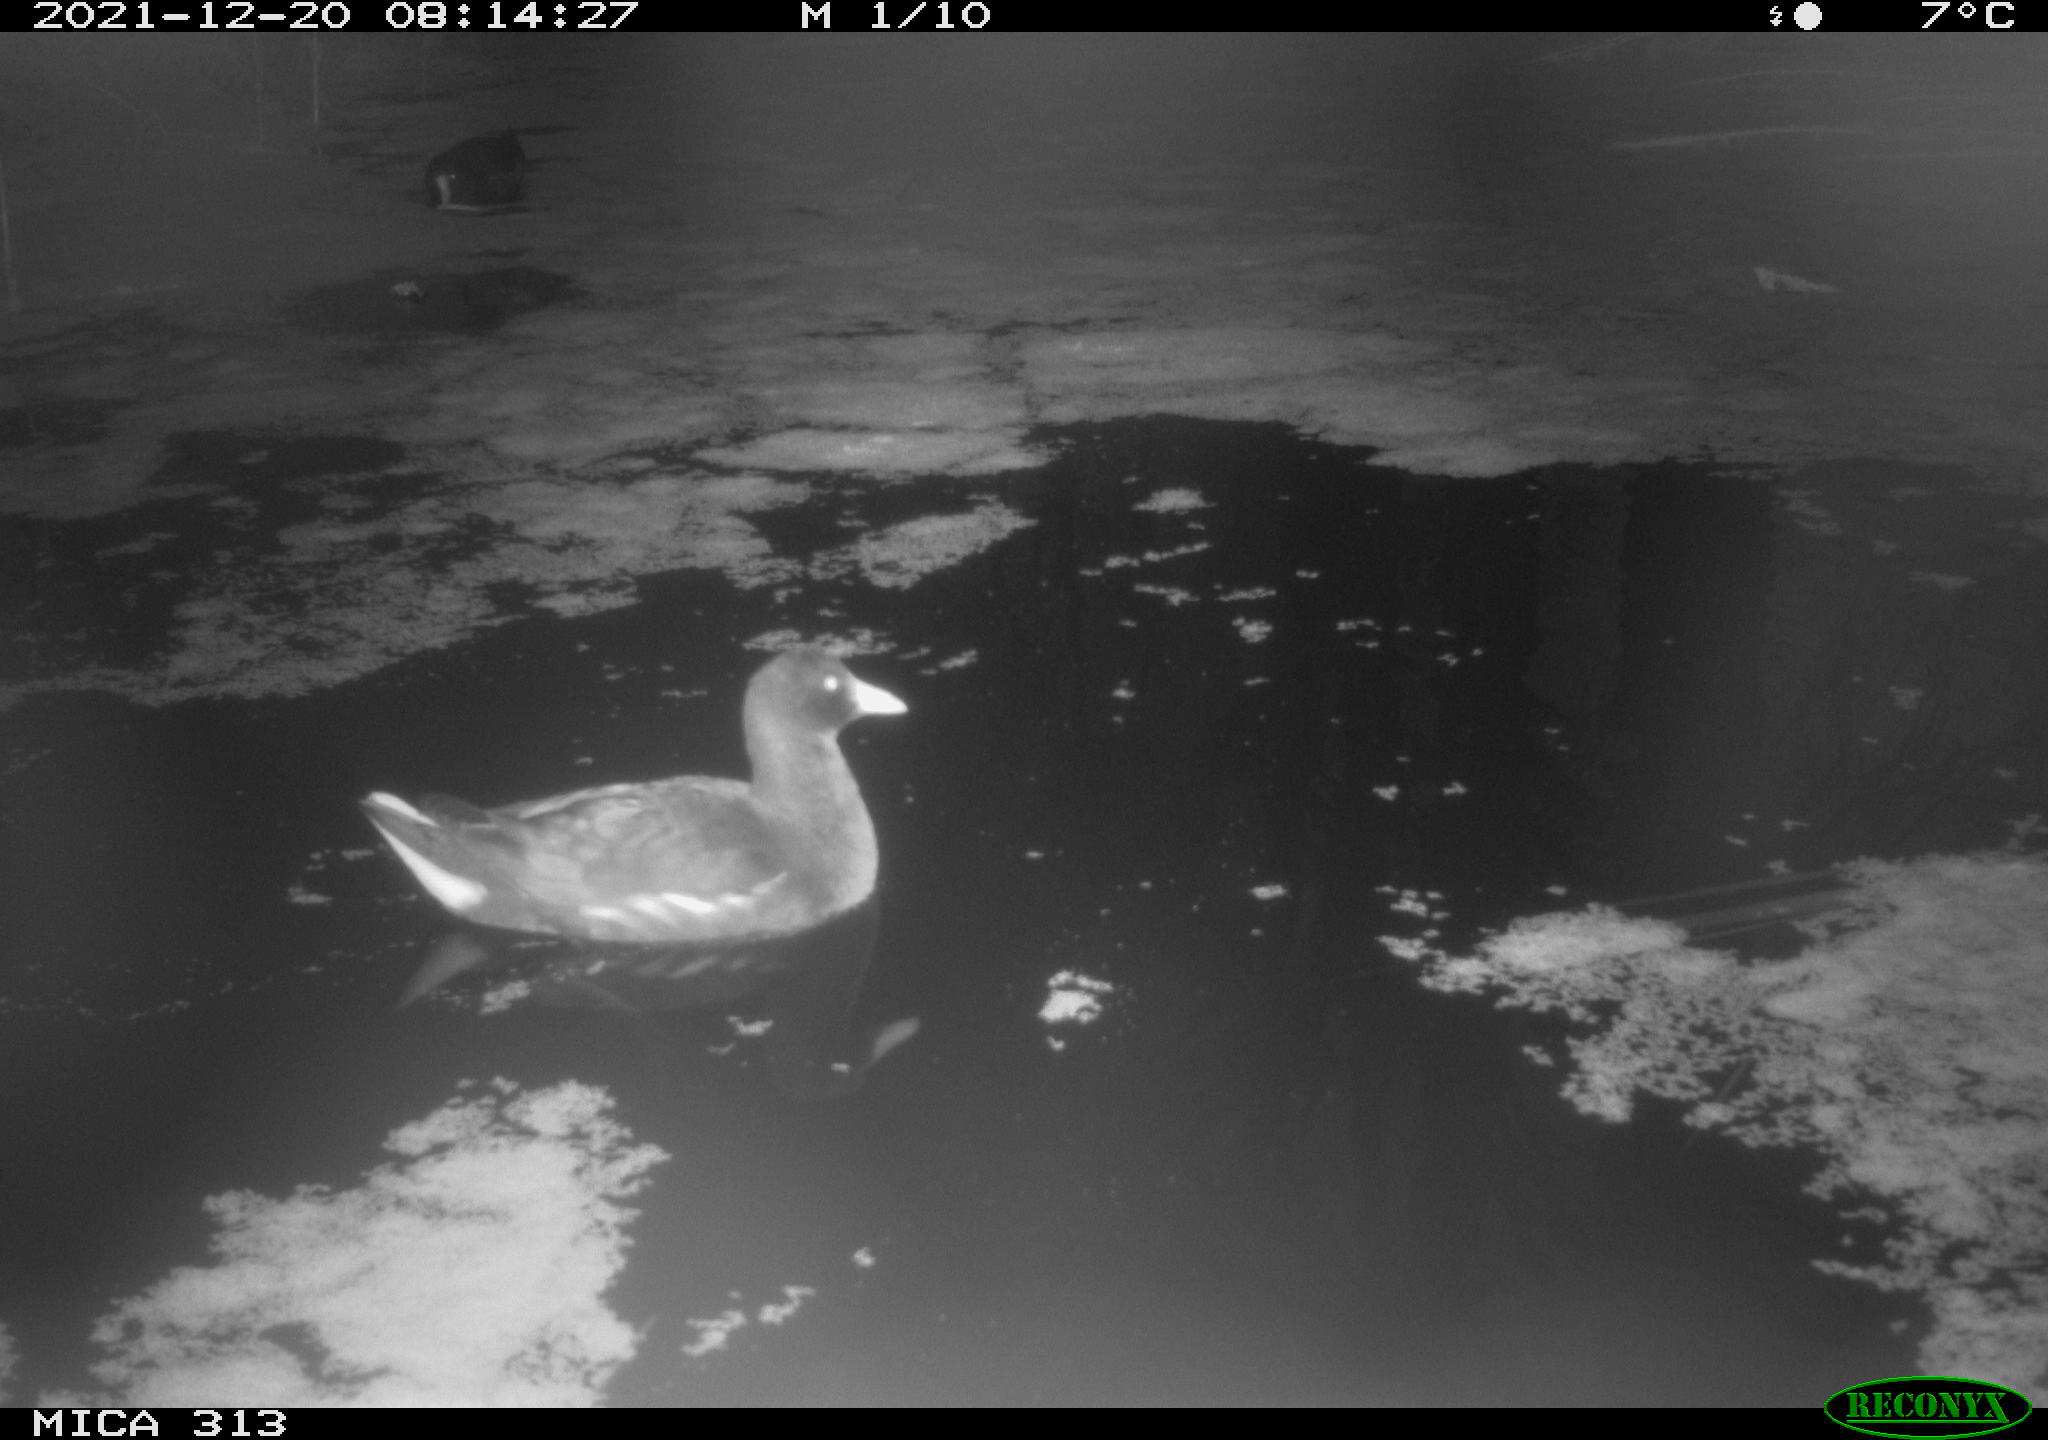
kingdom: Animalia
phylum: Chordata
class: Aves
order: Anseriformes
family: Anatidae
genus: Mareca
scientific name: Mareca strepera
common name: Gadwall
